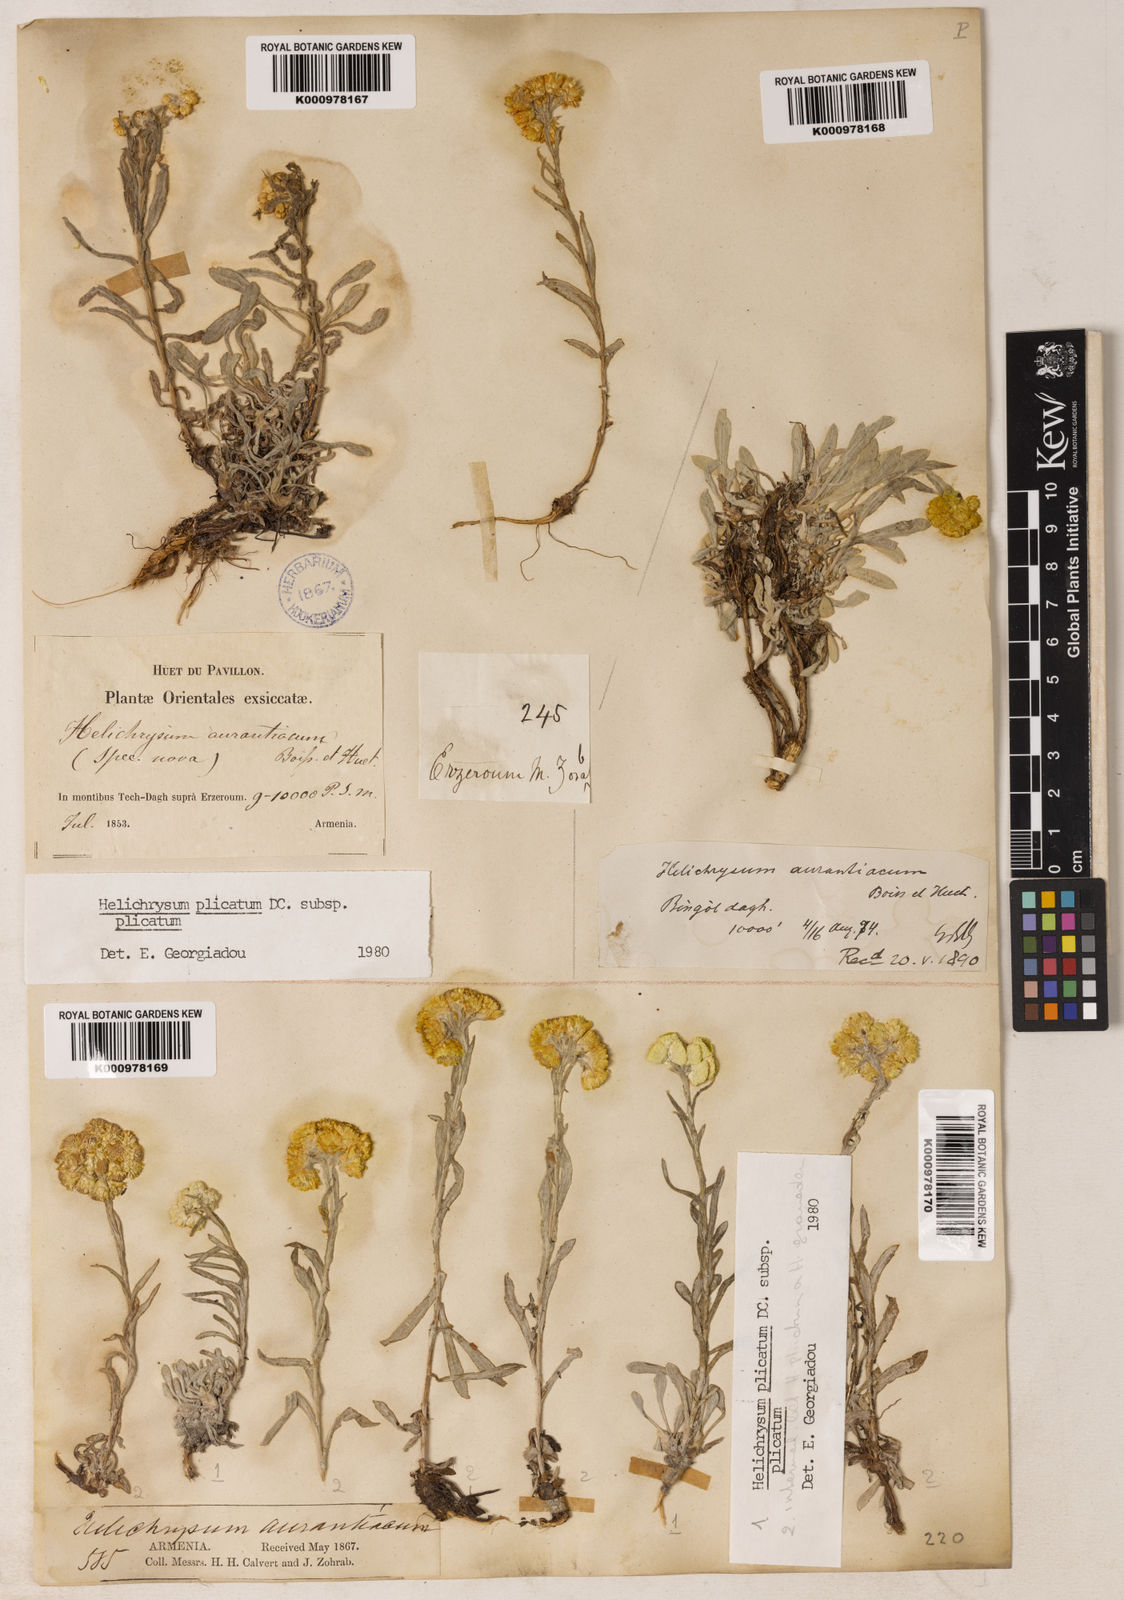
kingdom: Plantae
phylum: Tracheophyta
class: Magnoliopsida
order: Asterales
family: Asteraceae
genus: Helichrysum
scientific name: Helichrysum graveolens
